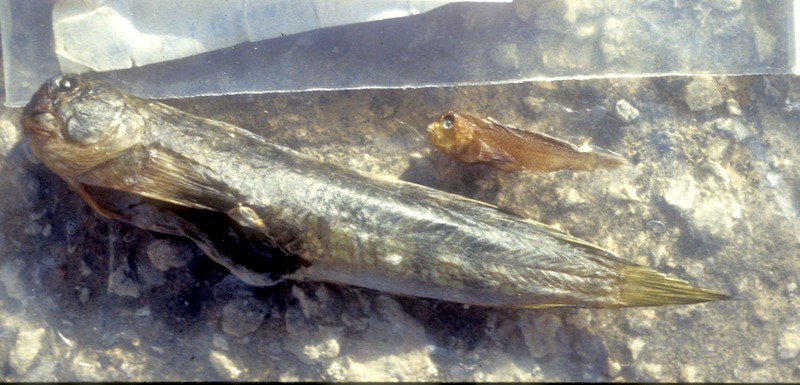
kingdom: Animalia
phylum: Chordata
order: Perciformes
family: Blenniidae
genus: Salarias
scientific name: Salarias fasciatus
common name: Jewelled blenny
